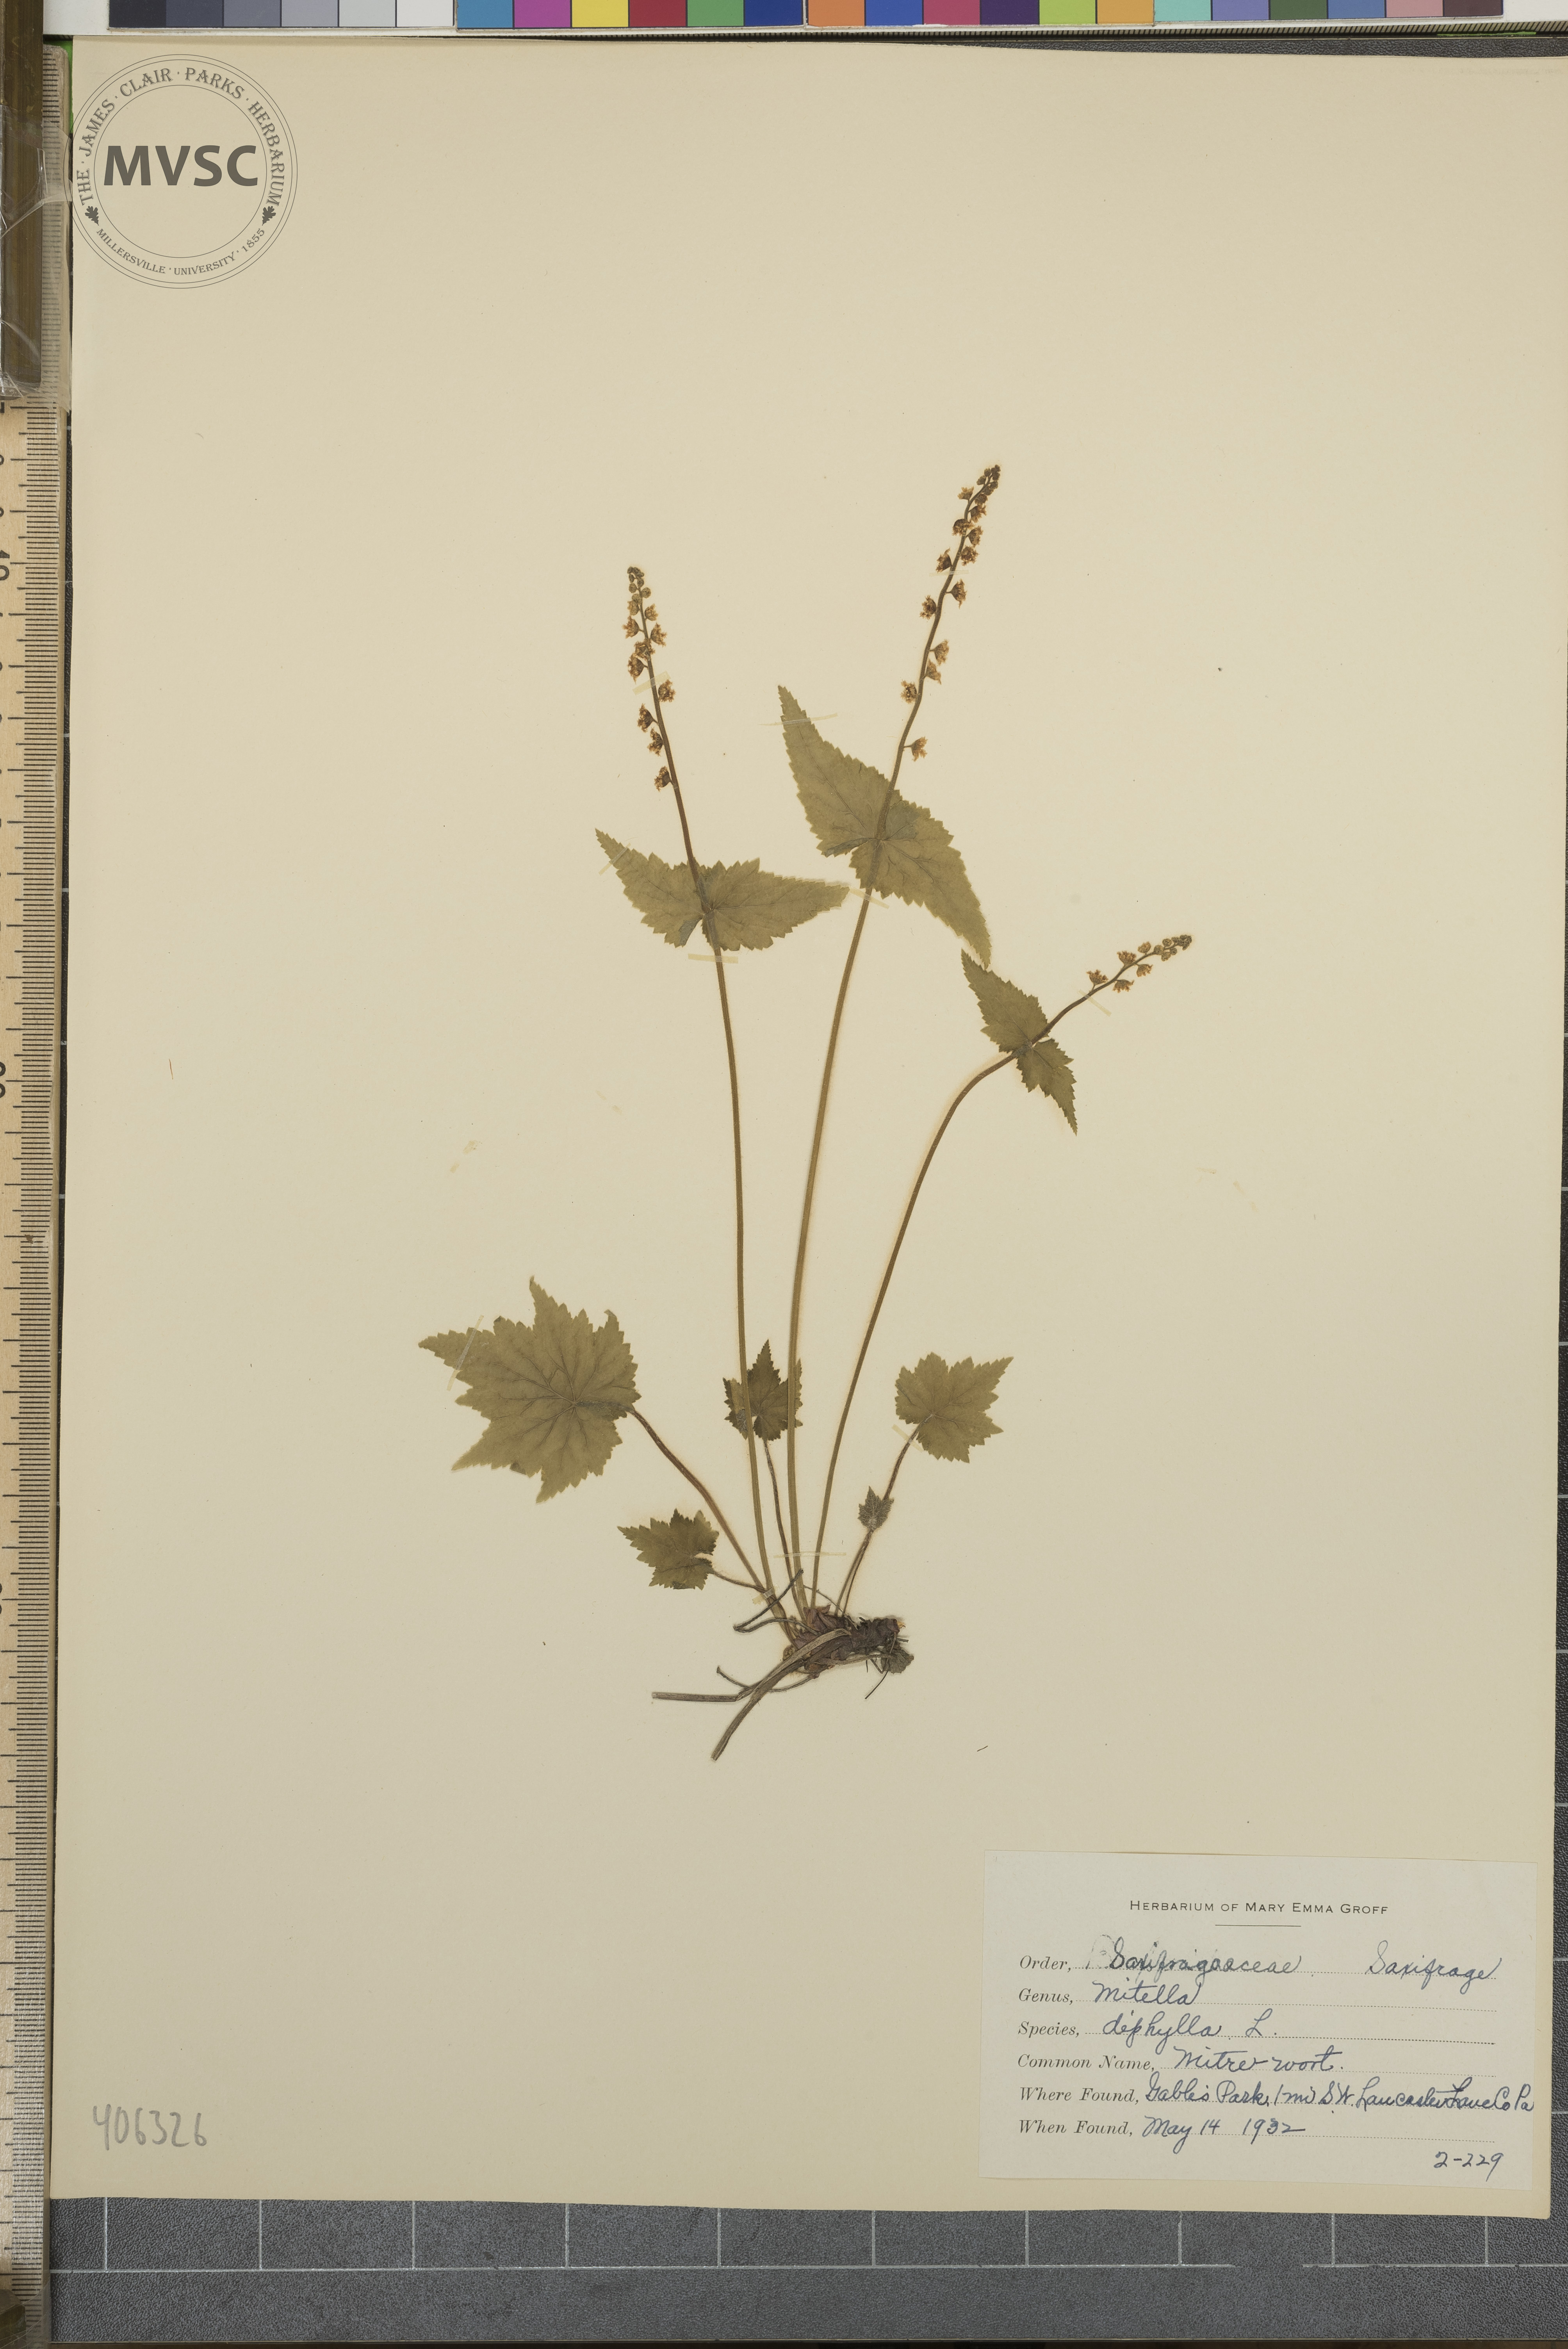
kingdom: Plantae
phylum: Tracheophyta
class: Magnoliopsida
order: Saxifragales
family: Saxifragaceae
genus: Mitella
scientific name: Mitella diphylla
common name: Coolwort
